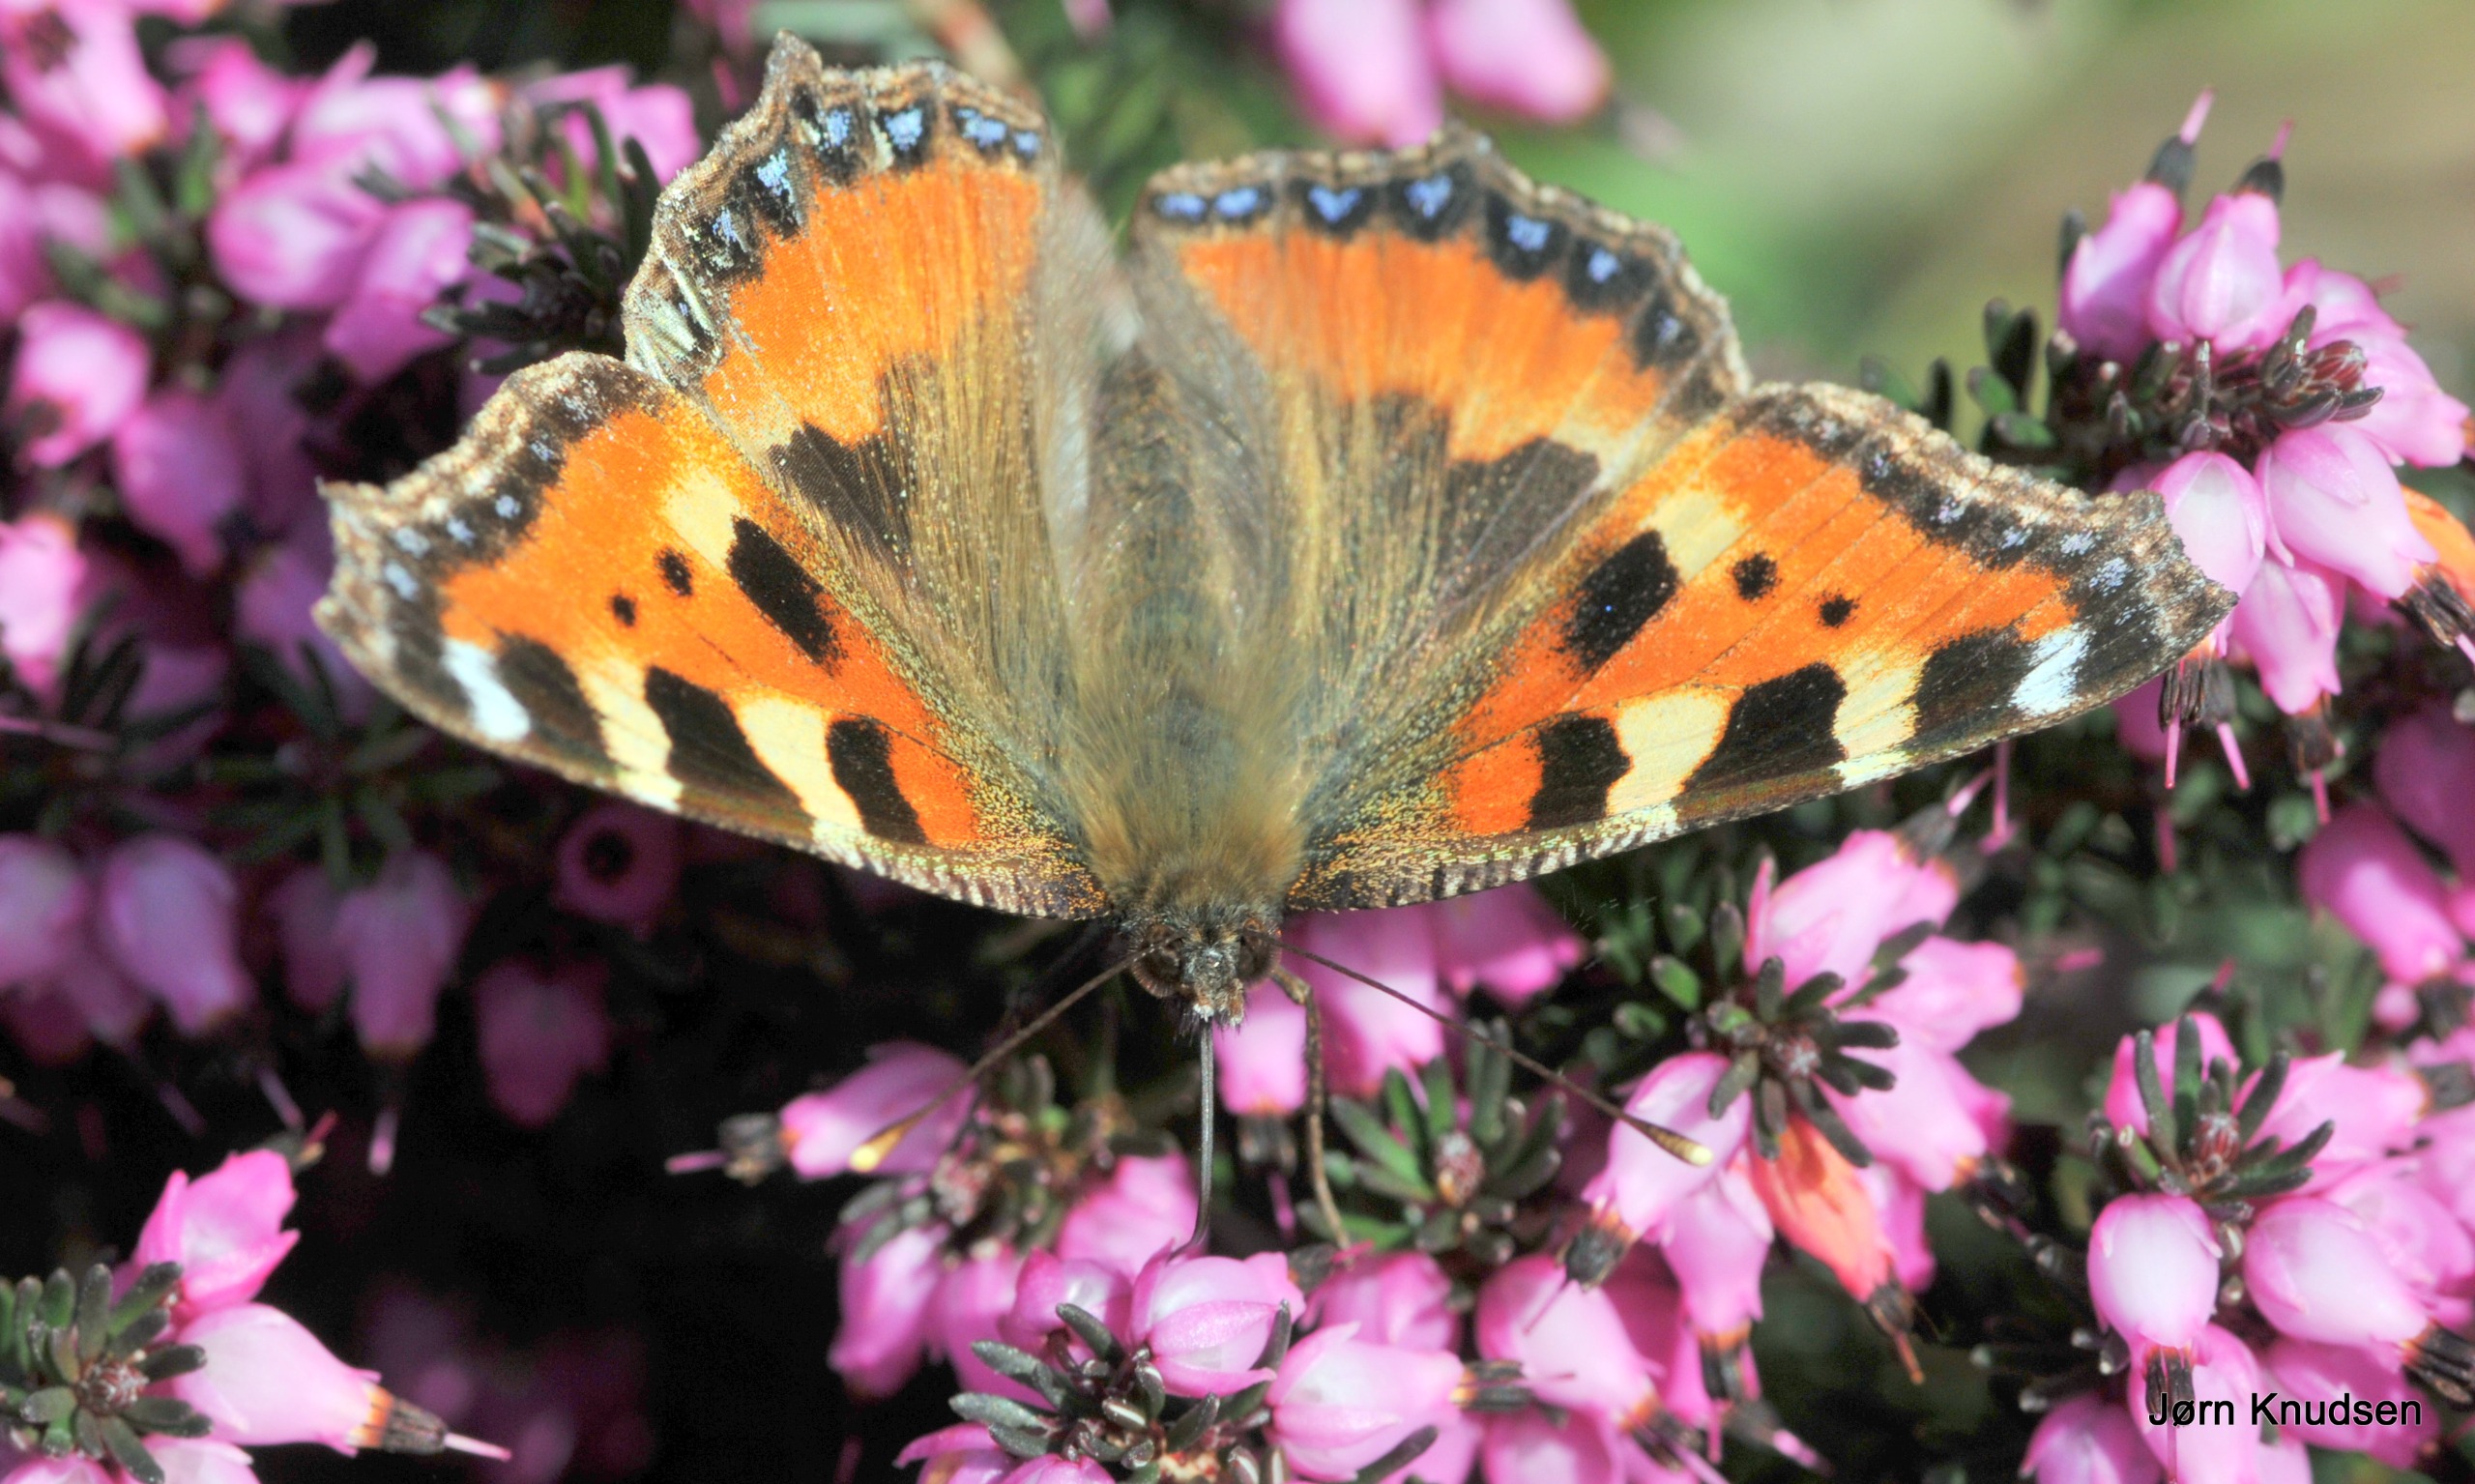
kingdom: Animalia
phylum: Arthropoda
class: Insecta
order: Lepidoptera
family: Nymphalidae
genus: Aglais
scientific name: Aglais urticae
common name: Nældens takvinge
